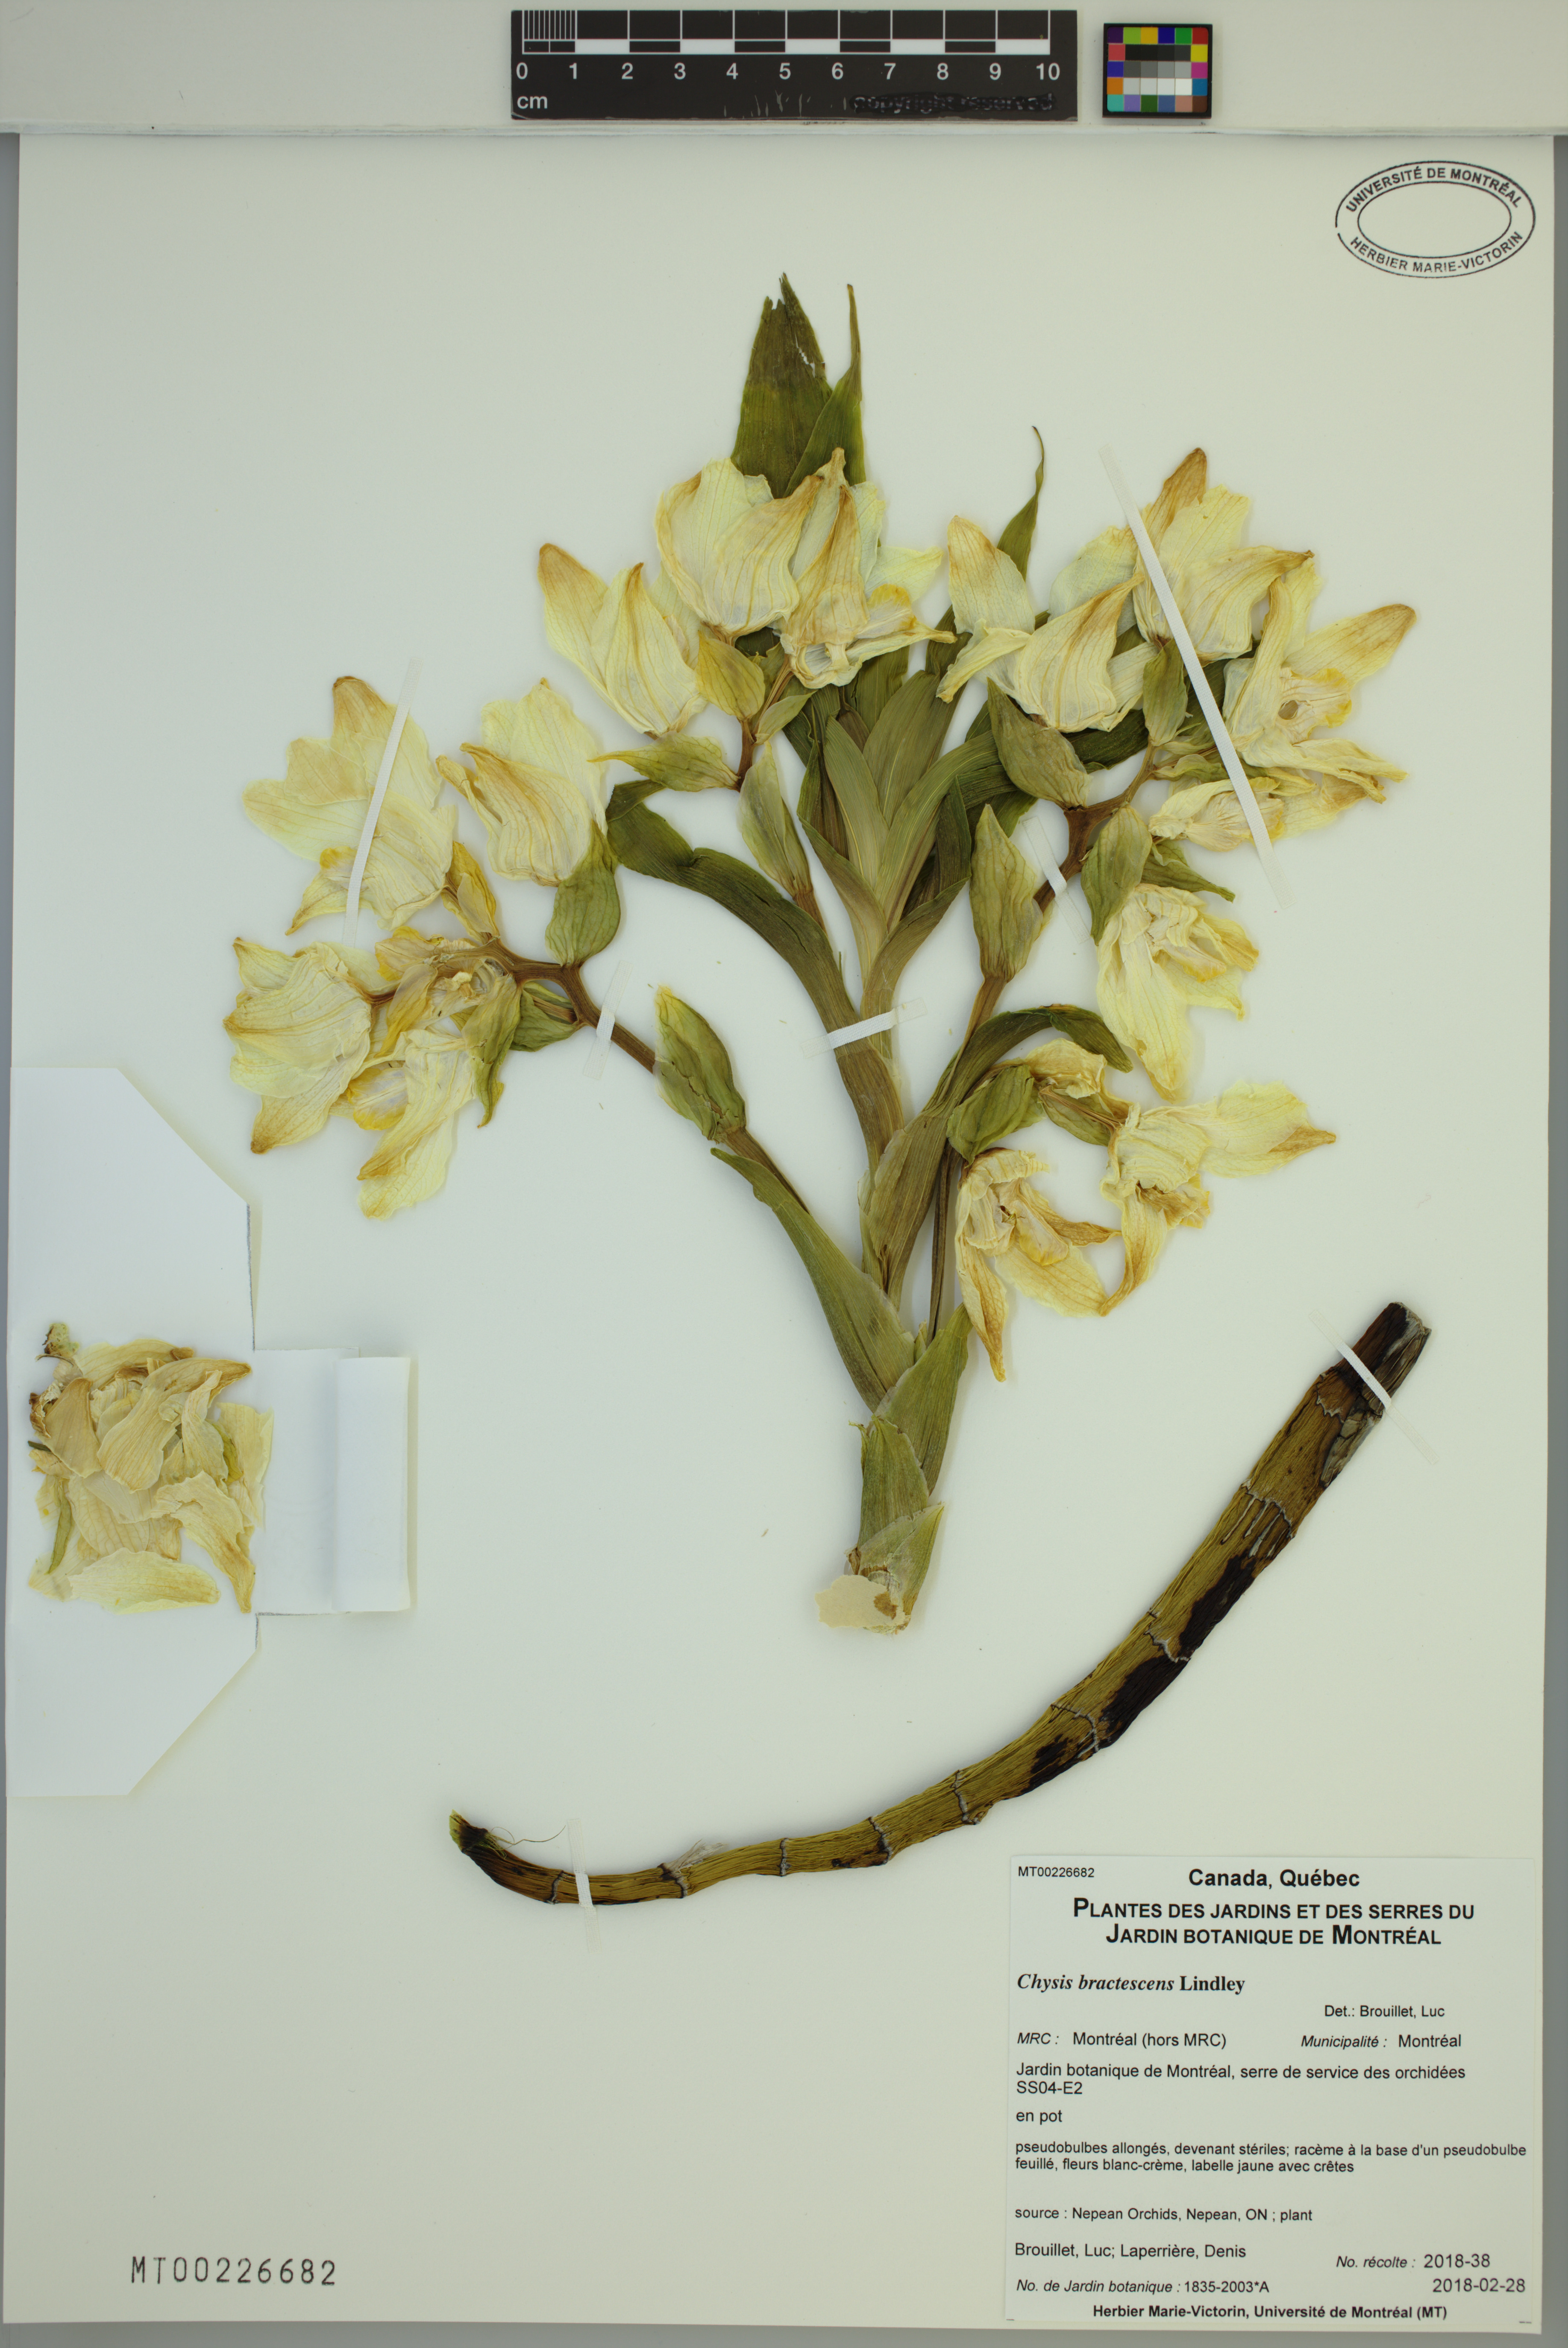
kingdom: Plantae
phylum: Tracheophyta
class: Liliopsida
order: Asparagales
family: Orchidaceae
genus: Chysis
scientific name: Chysis bractescens
